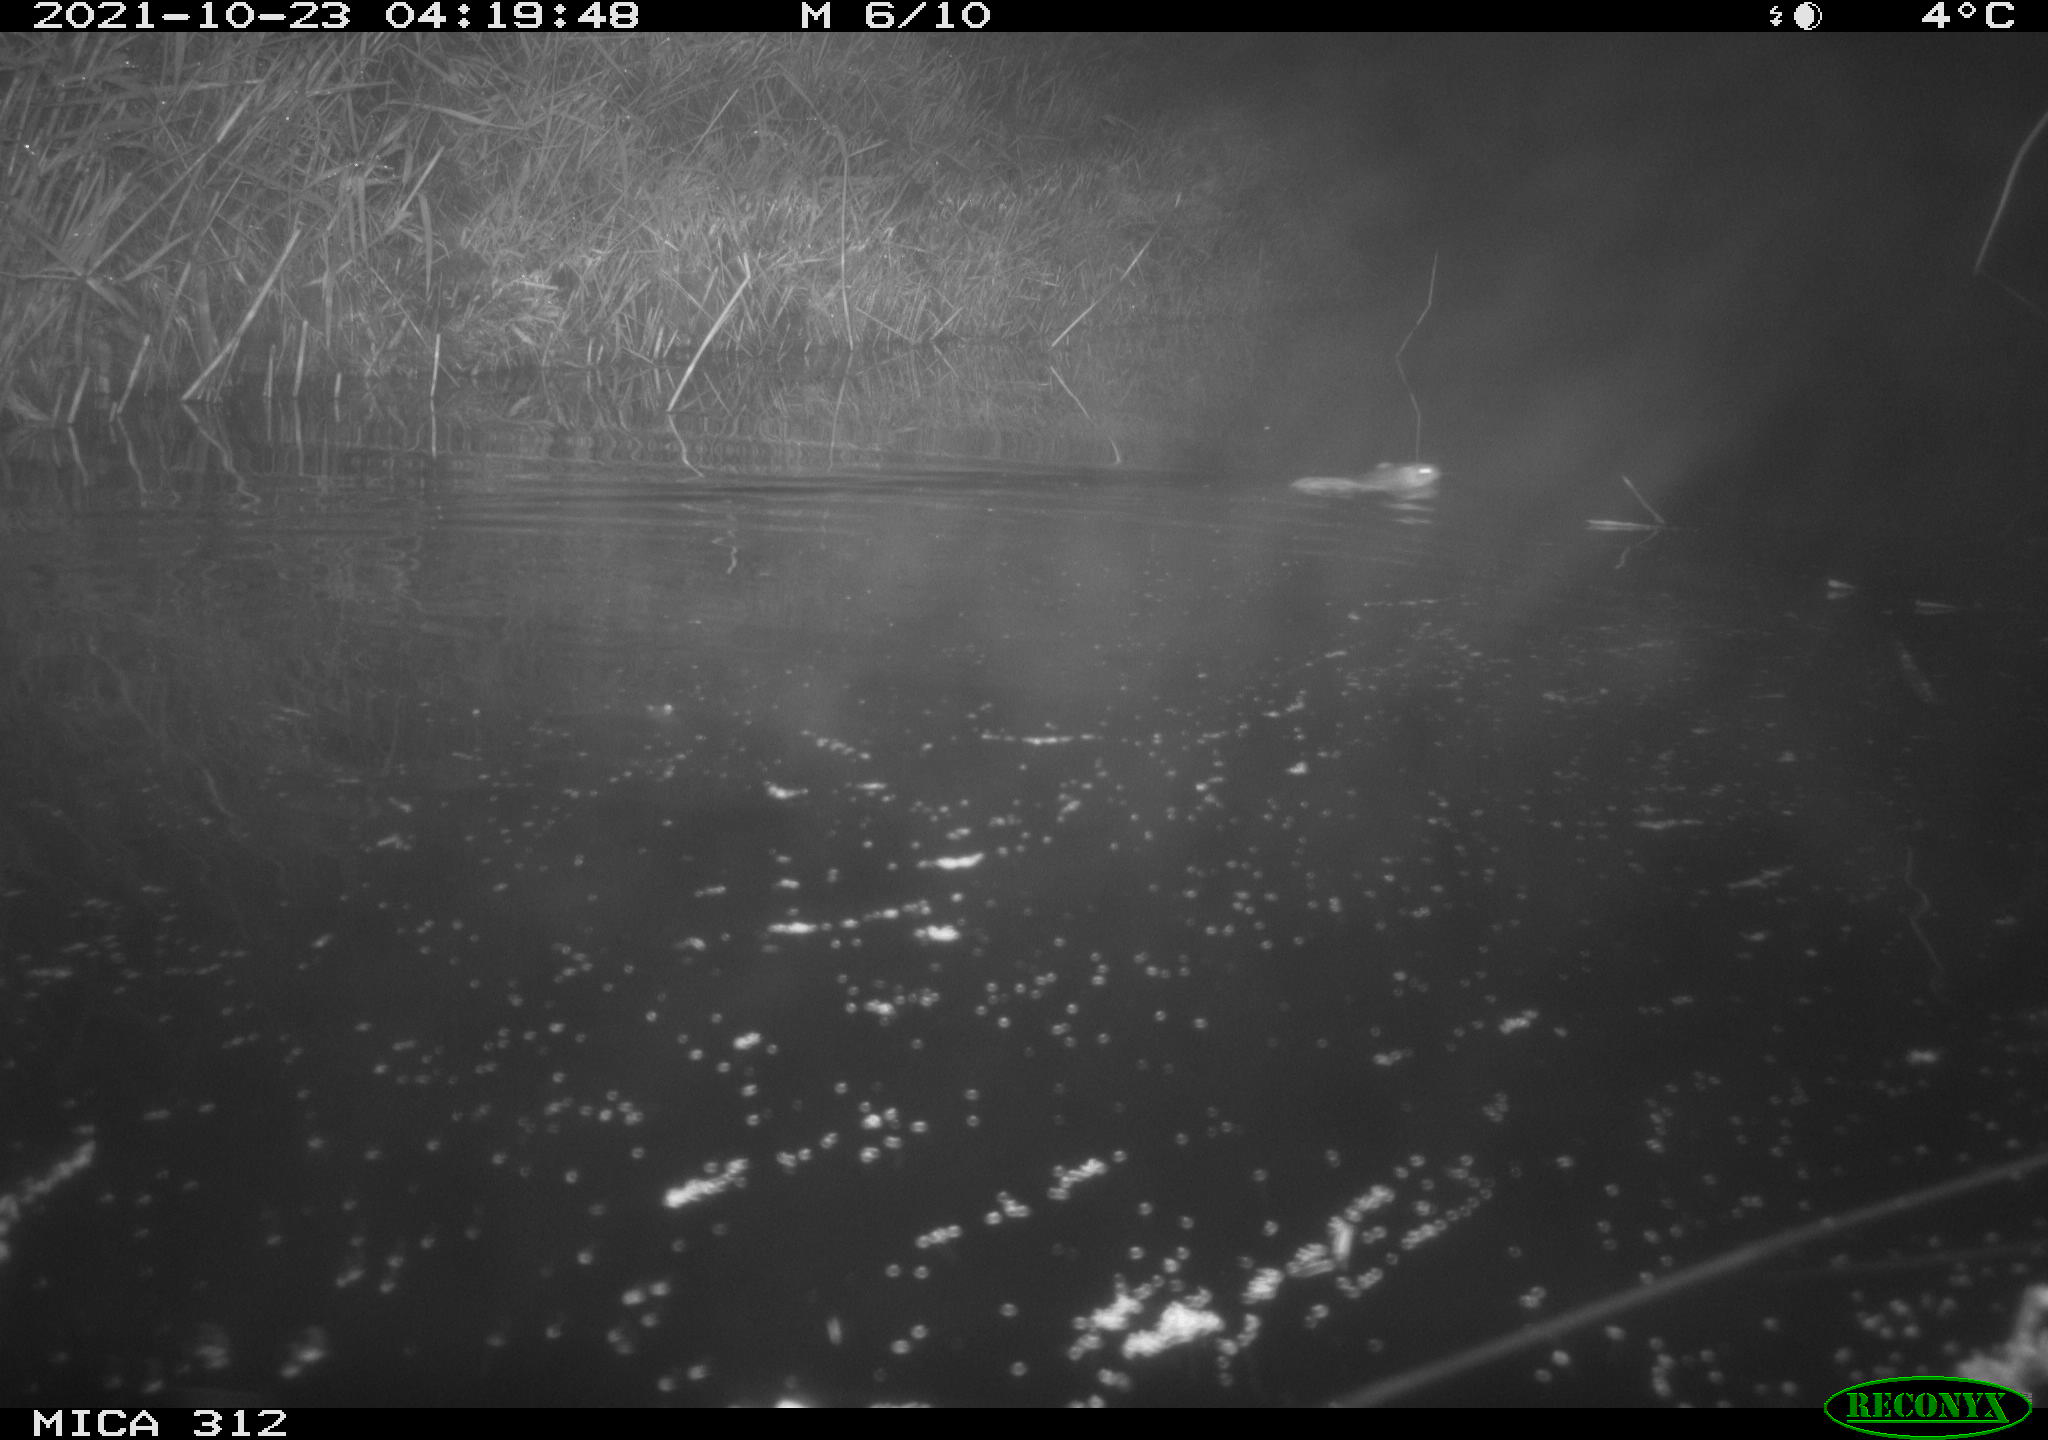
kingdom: Animalia
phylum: Chordata
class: Mammalia
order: Rodentia
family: Muridae
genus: Rattus
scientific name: Rattus norvegicus
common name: Brown rat
